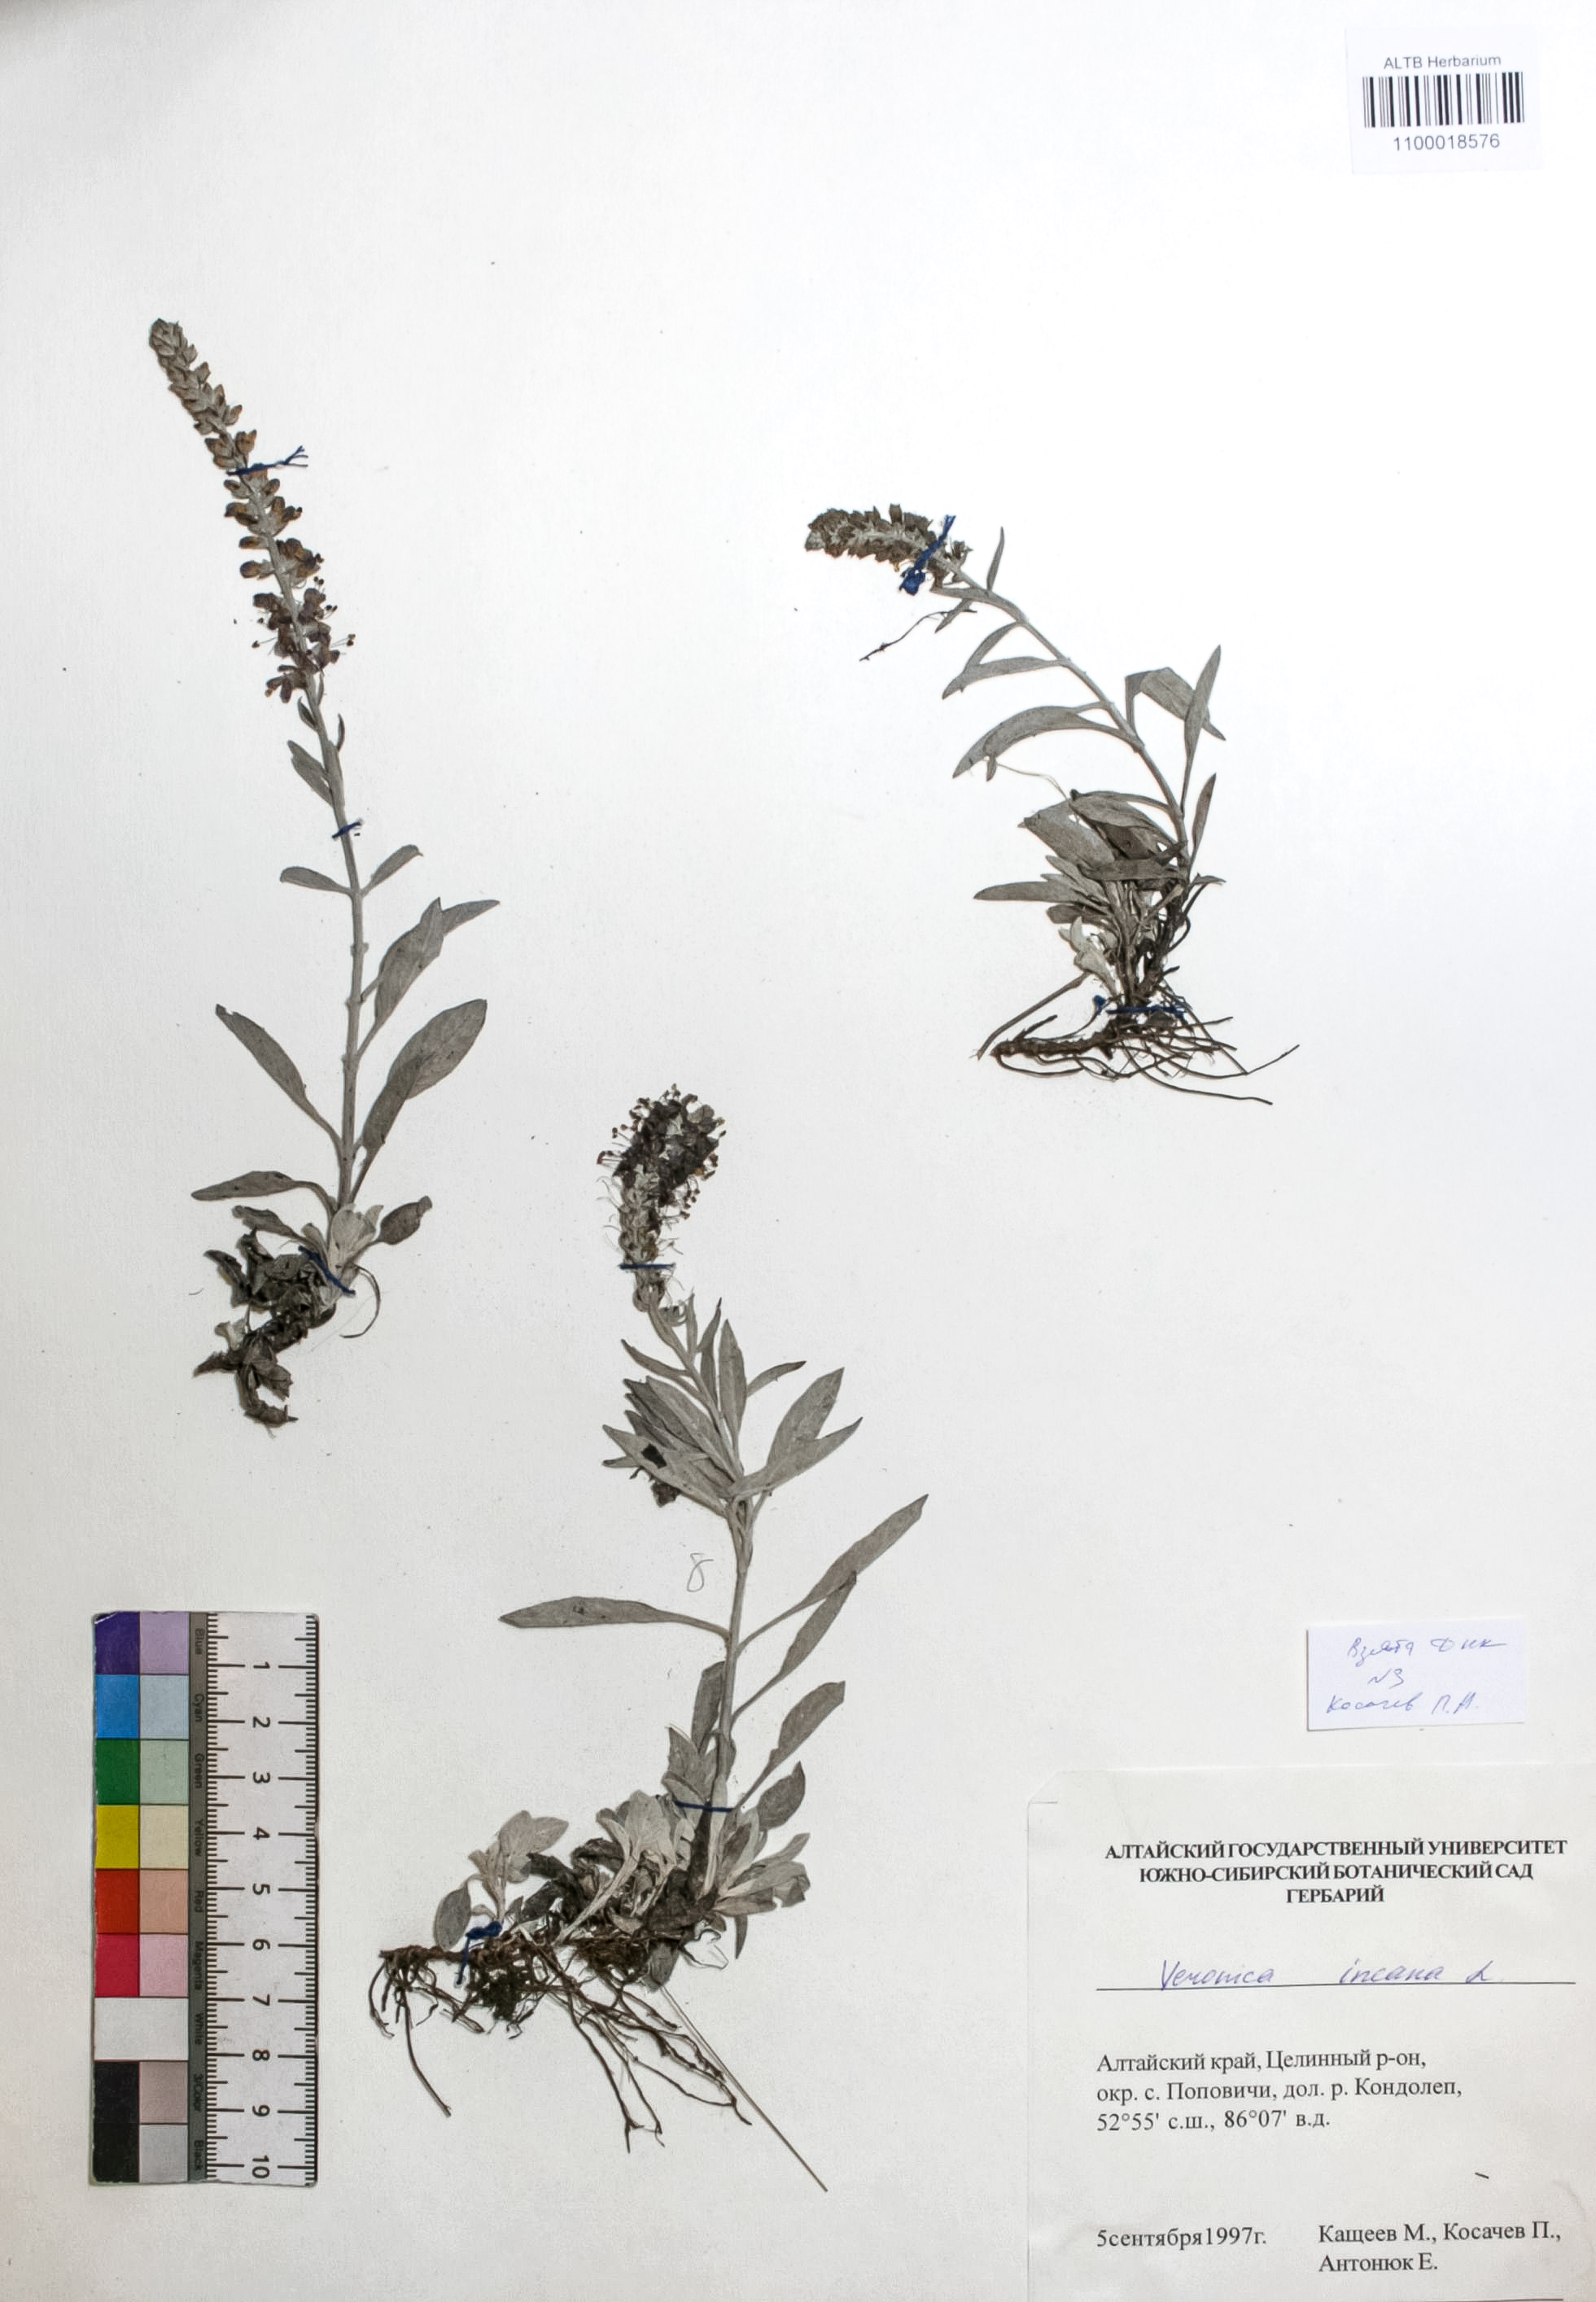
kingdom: Plantae
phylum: Tracheophyta
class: Magnoliopsida
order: Lamiales
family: Plantaginaceae
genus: Veronica
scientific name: Veronica incana
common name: Silver speedwell
